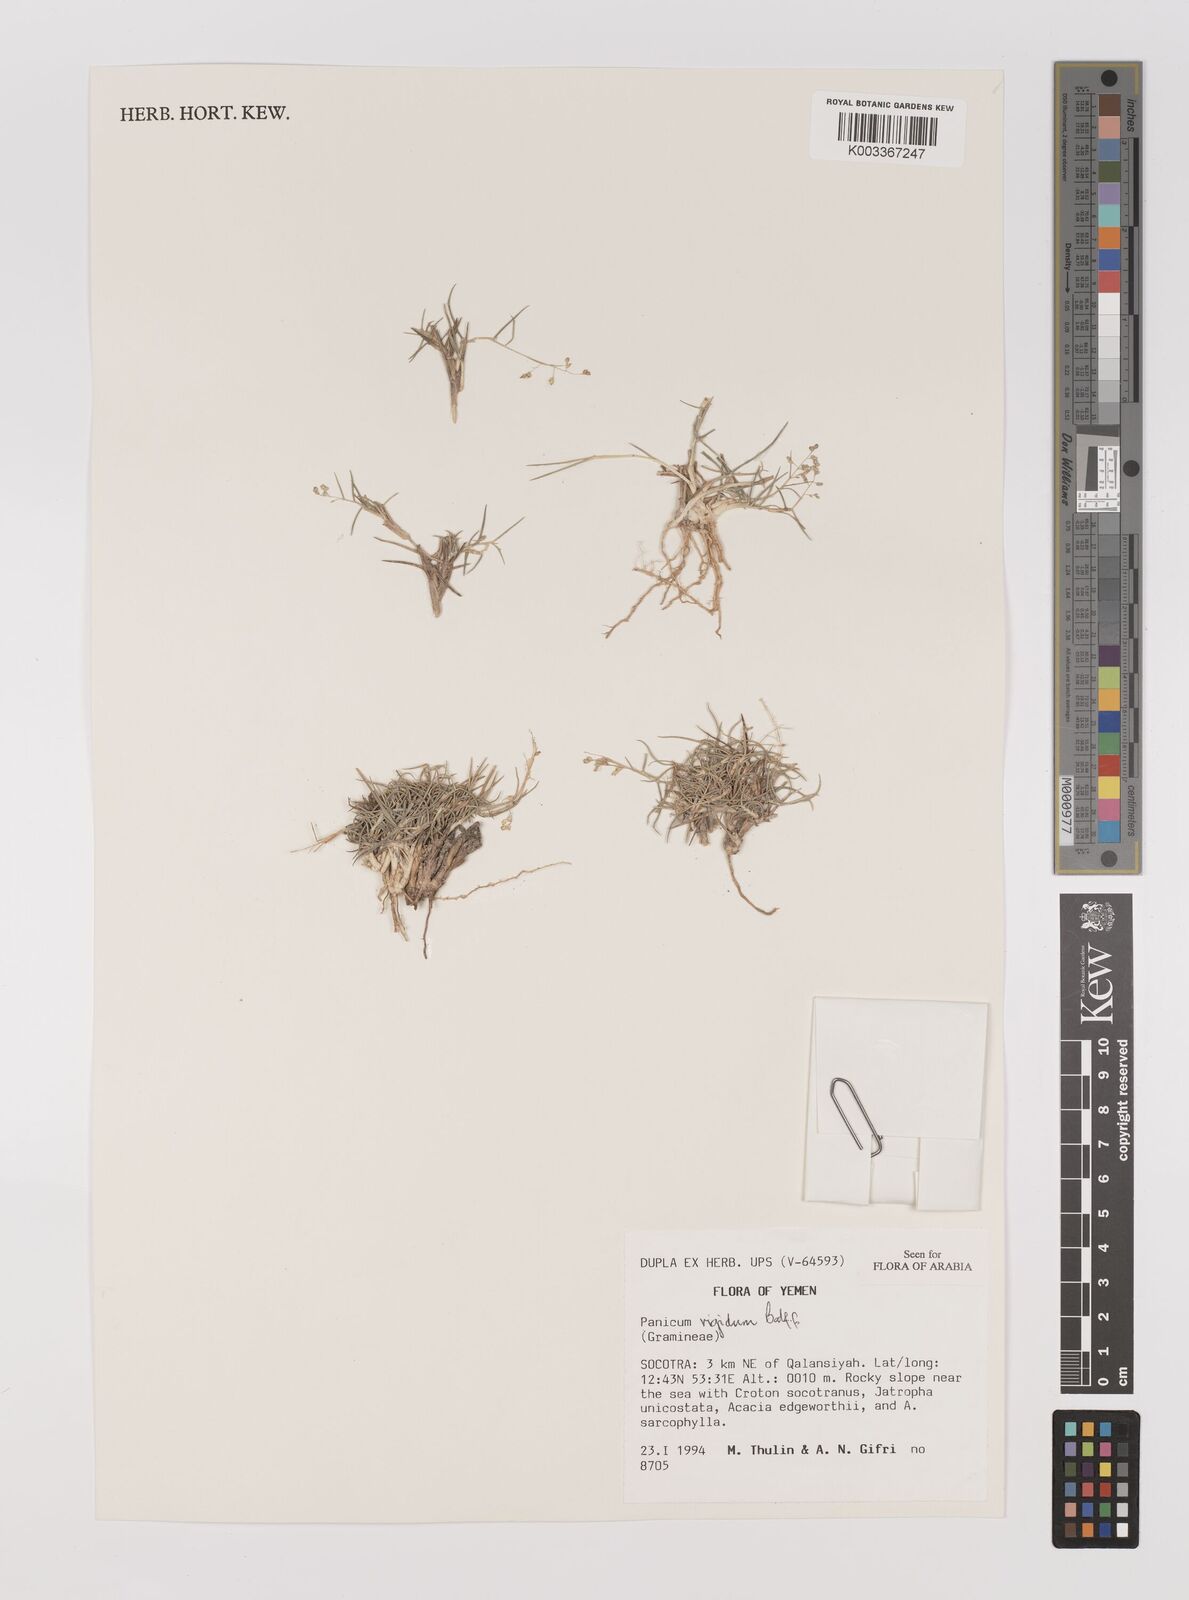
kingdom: Plantae
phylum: Tracheophyta
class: Liliopsida
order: Poales
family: Poaceae
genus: Panicum
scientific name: Panicum rigidum
